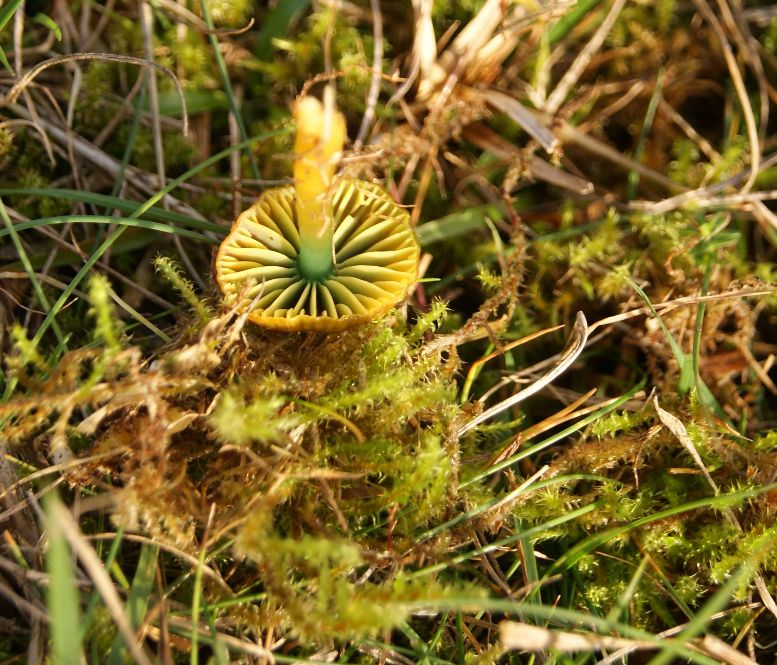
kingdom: Fungi
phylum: Basidiomycota
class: Agaricomycetes
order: Agaricales
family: Hygrophoraceae
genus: Gliophorus
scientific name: Gliophorus psittacinus
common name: papegøje-vokshat
